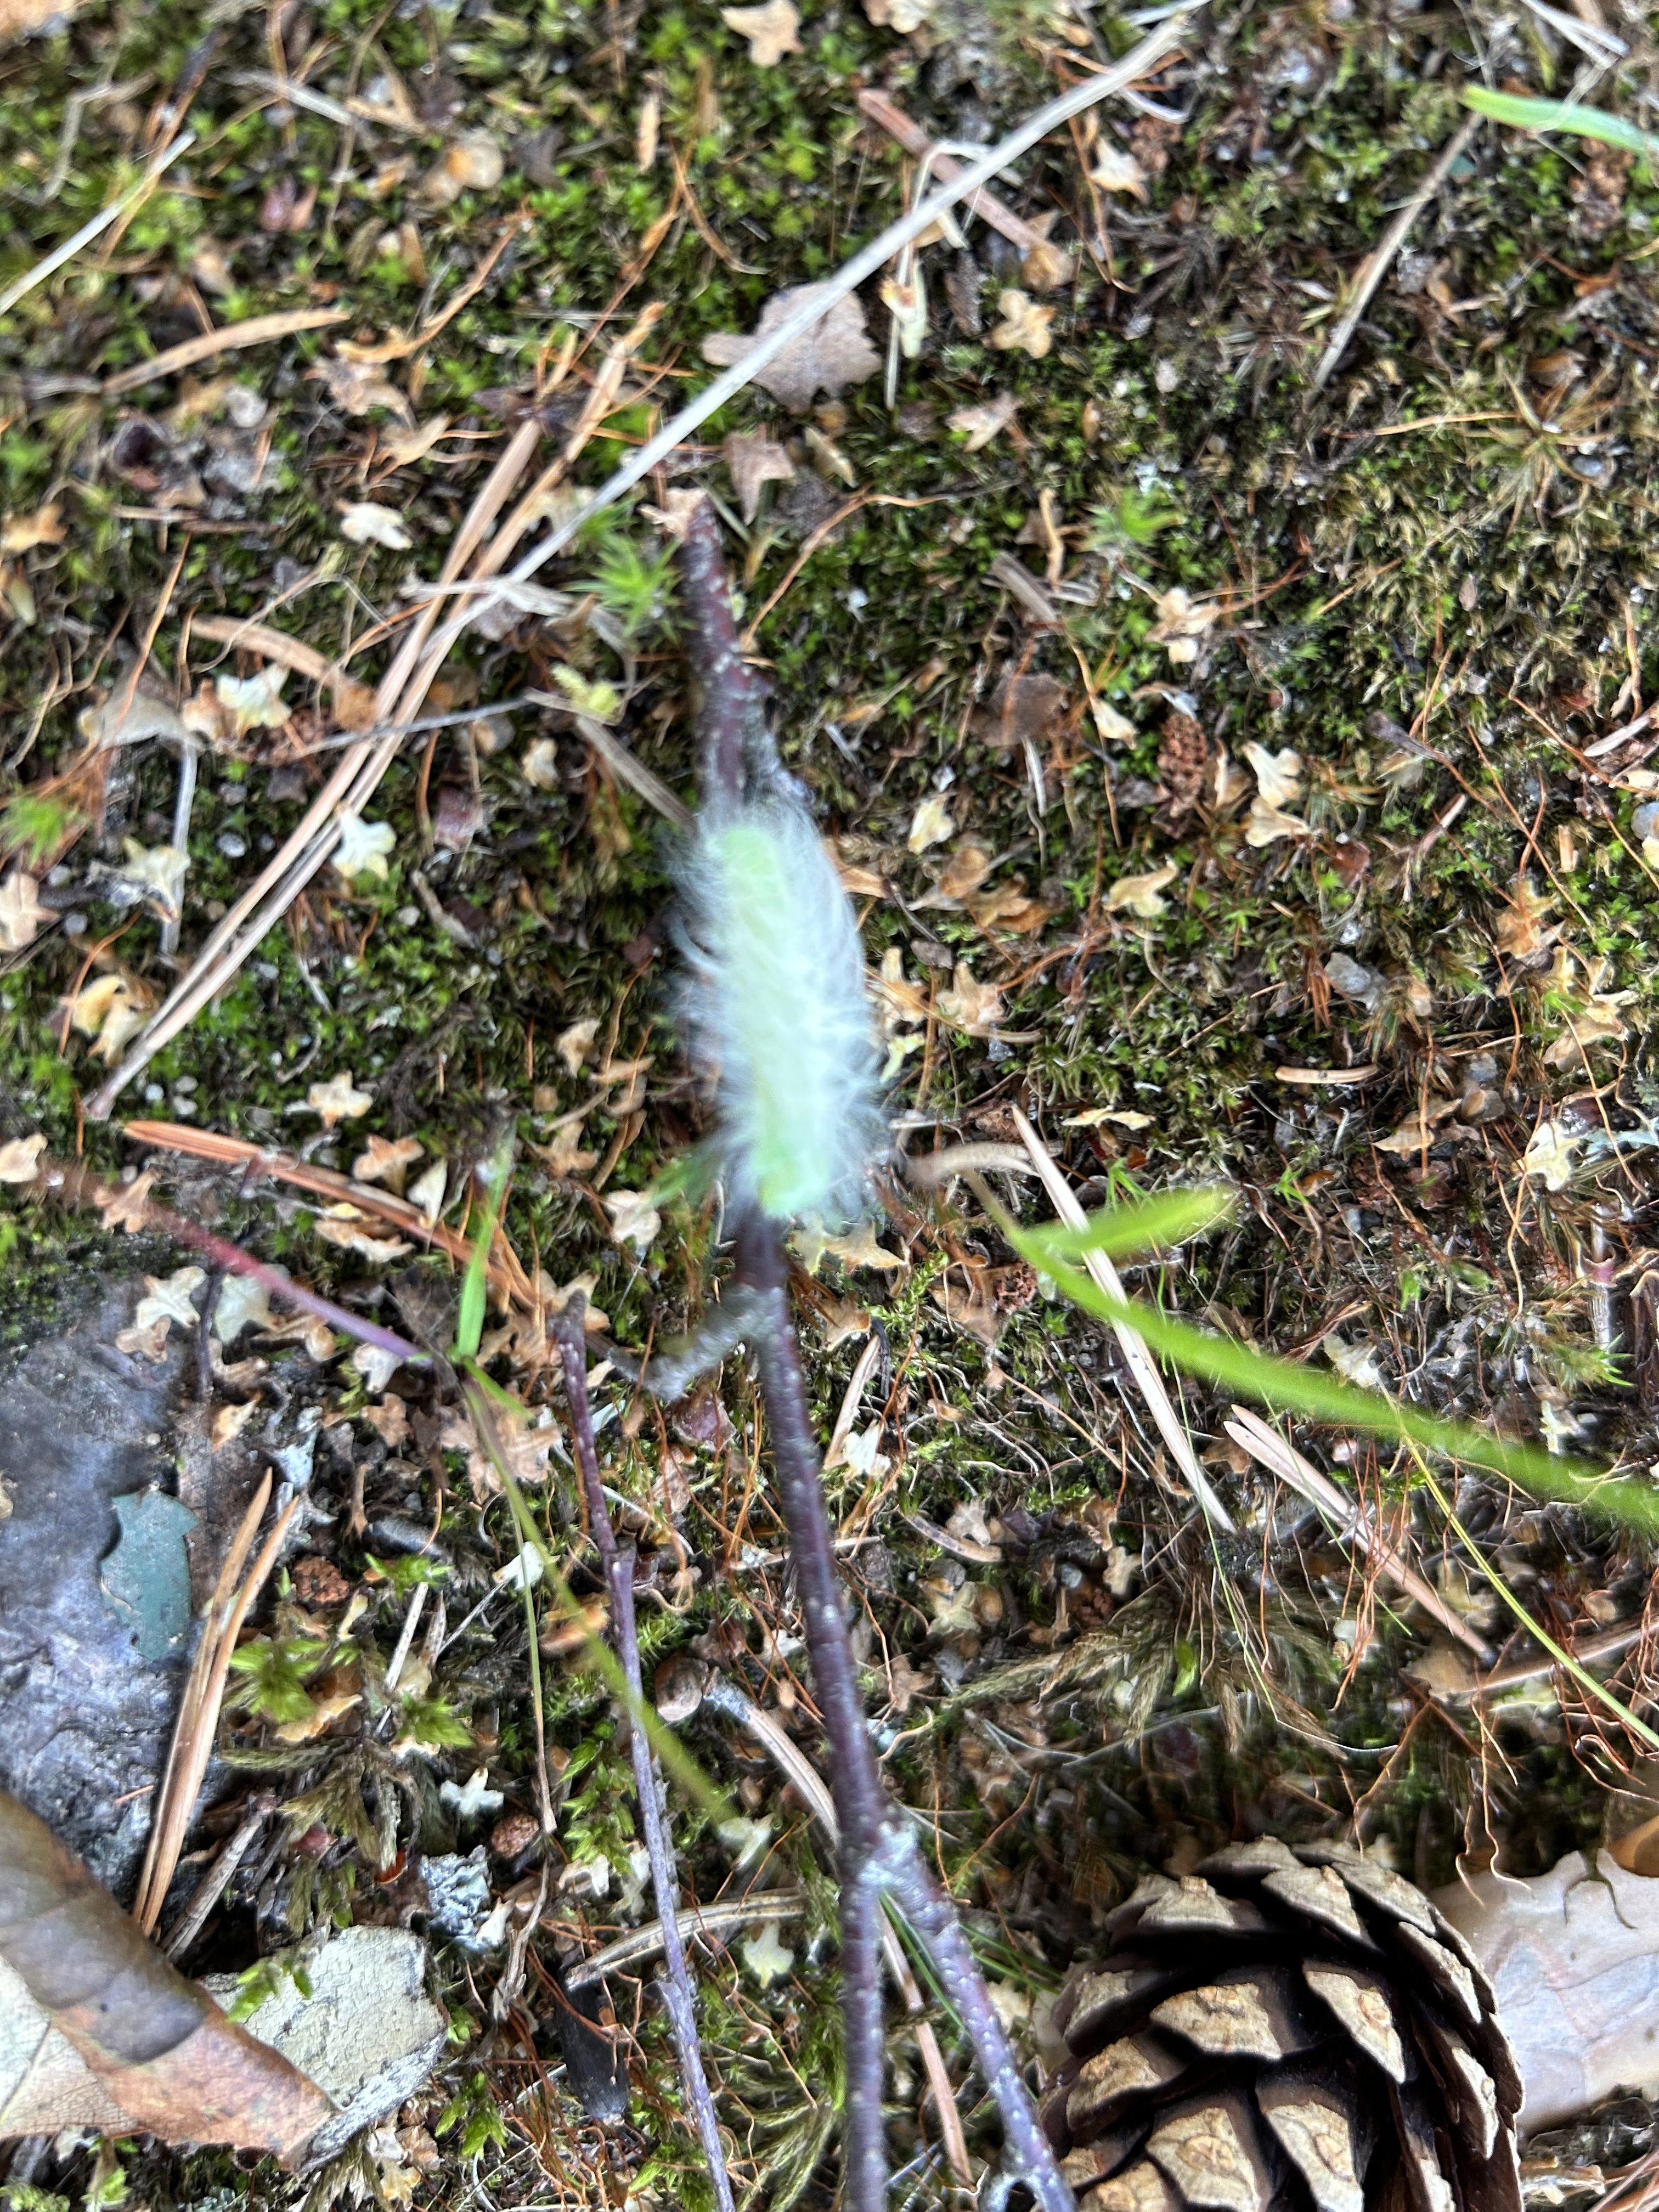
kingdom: Animalia
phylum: Arthropoda
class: Insecta
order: Lepidoptera
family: Noctuidae
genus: Acronicta
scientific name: Acronicta leporina
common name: Miller
